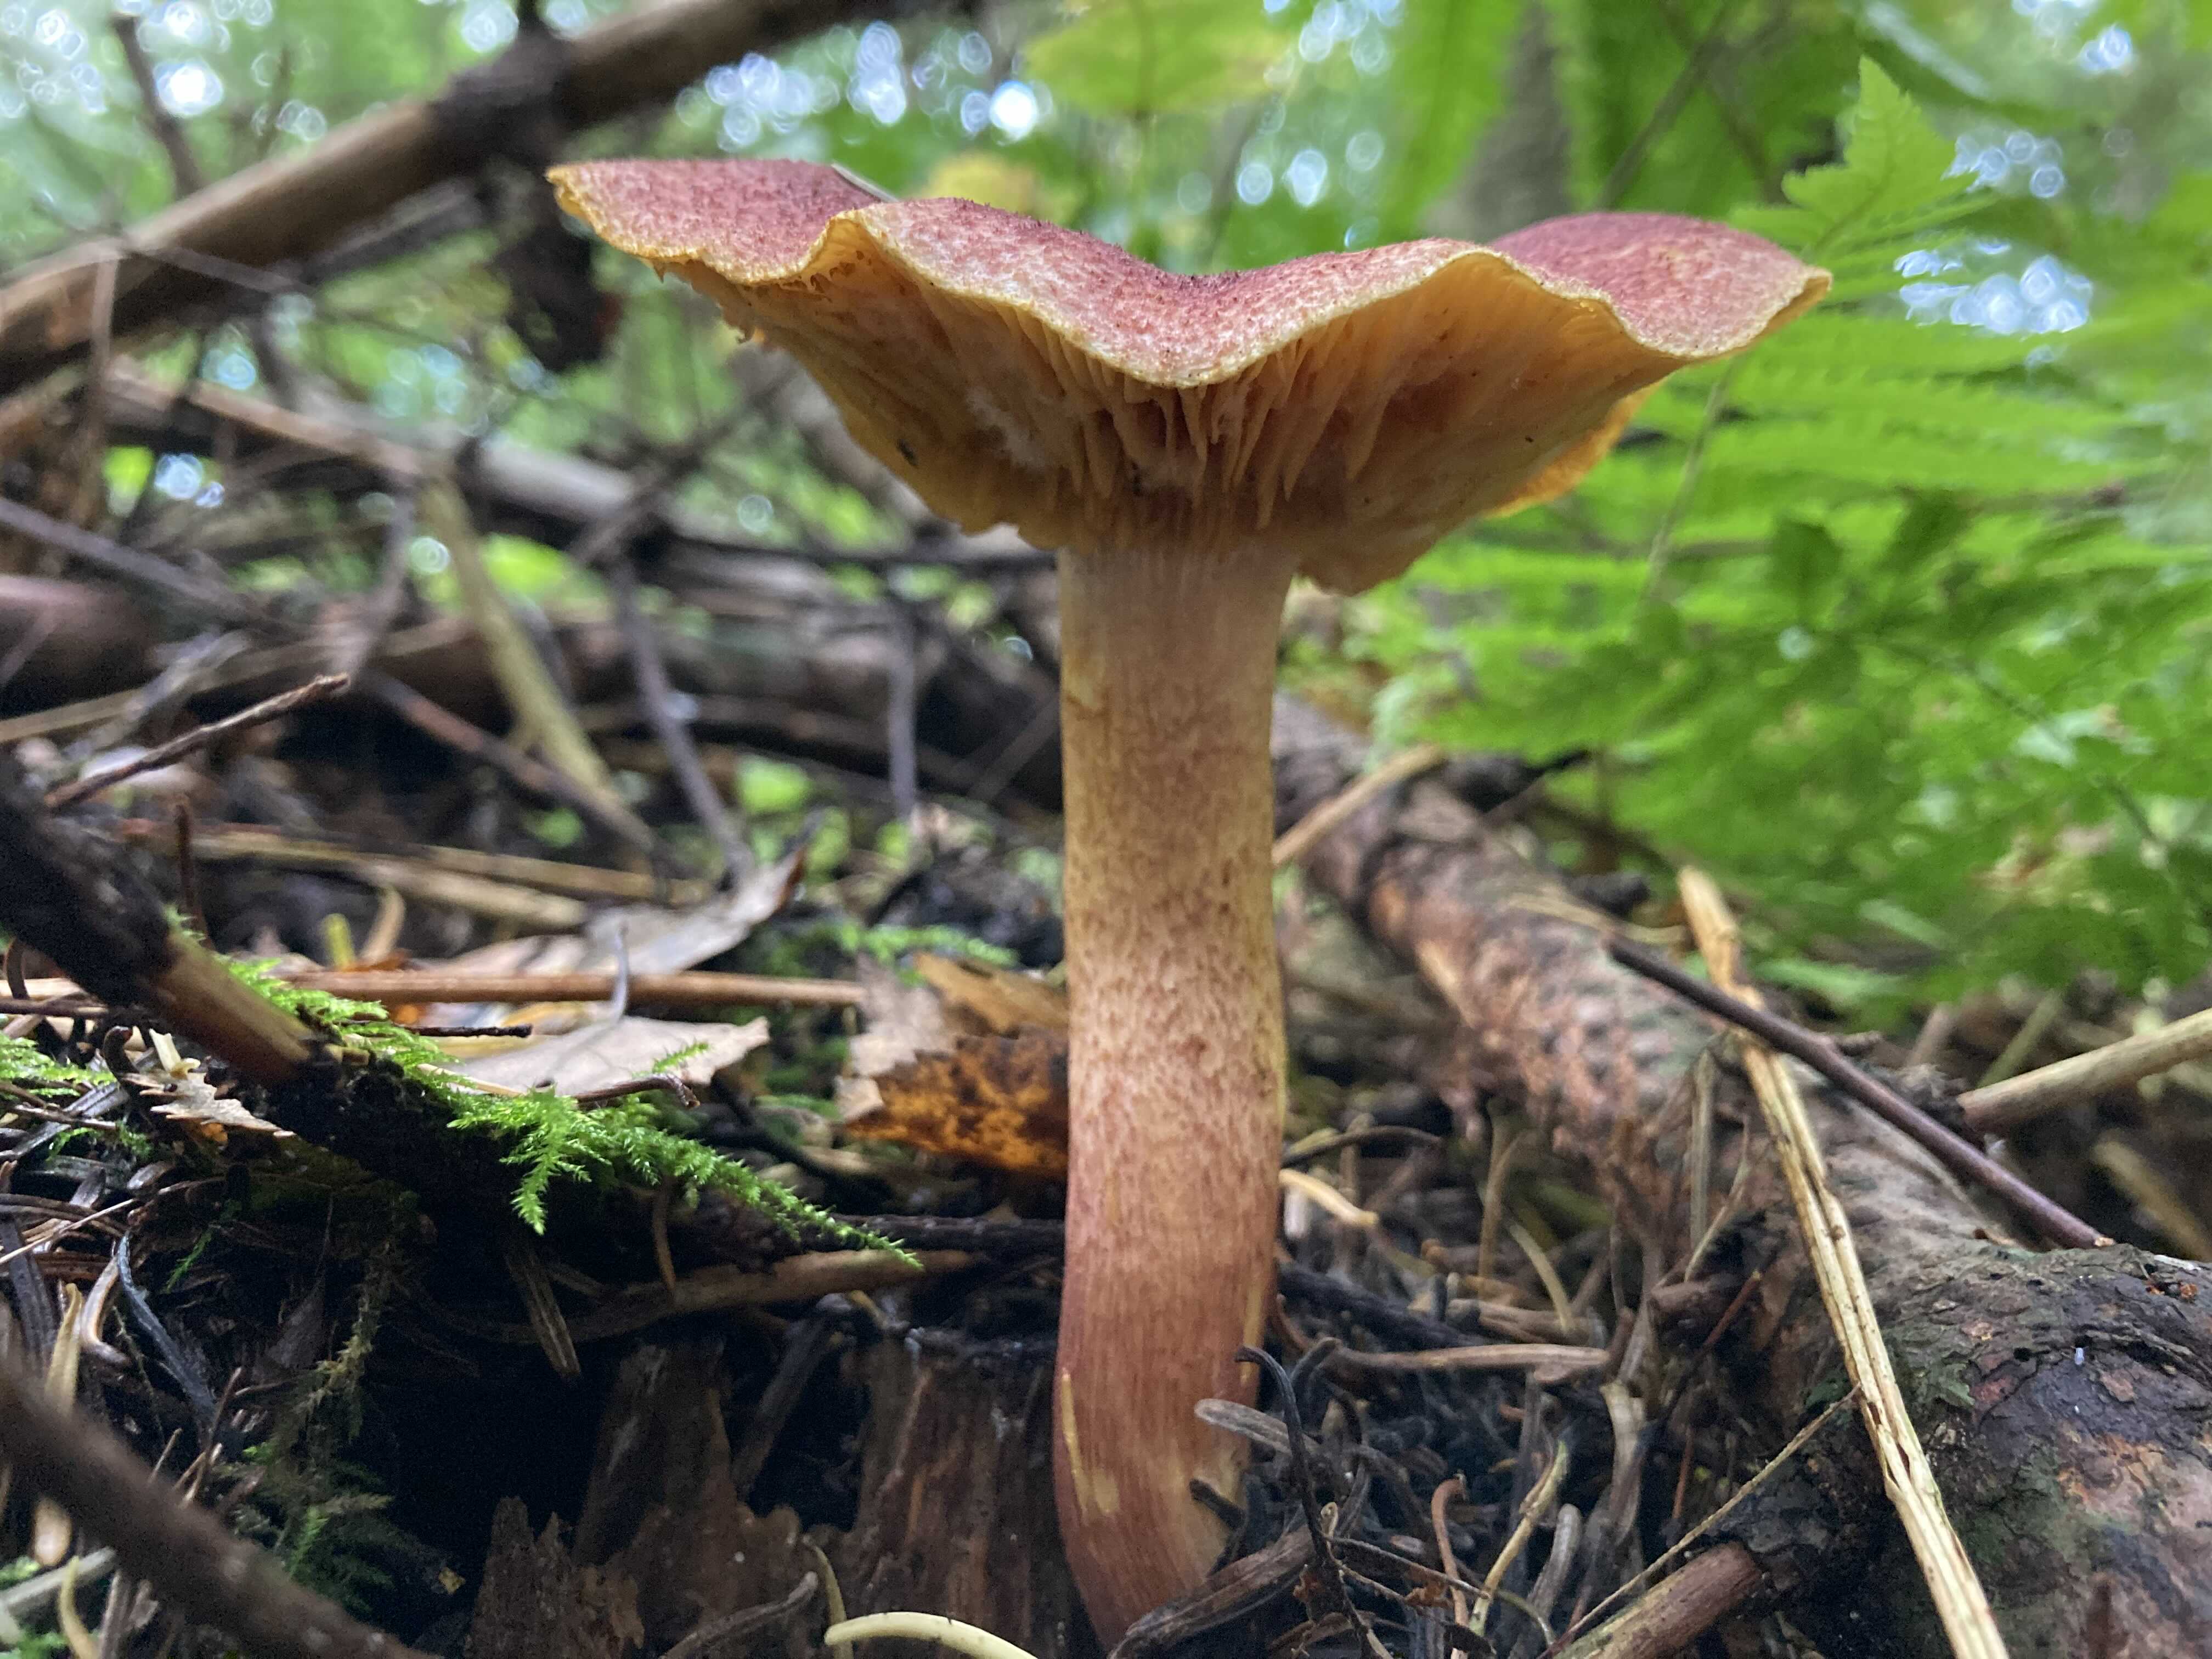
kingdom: Fungi
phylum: Basidiomycota
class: Agaricomycetes
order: Agaricales
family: Tricholomataceae
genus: Tricholomopsis
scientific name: Tricholomopsis rutilans
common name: purpur-væbnerhat
